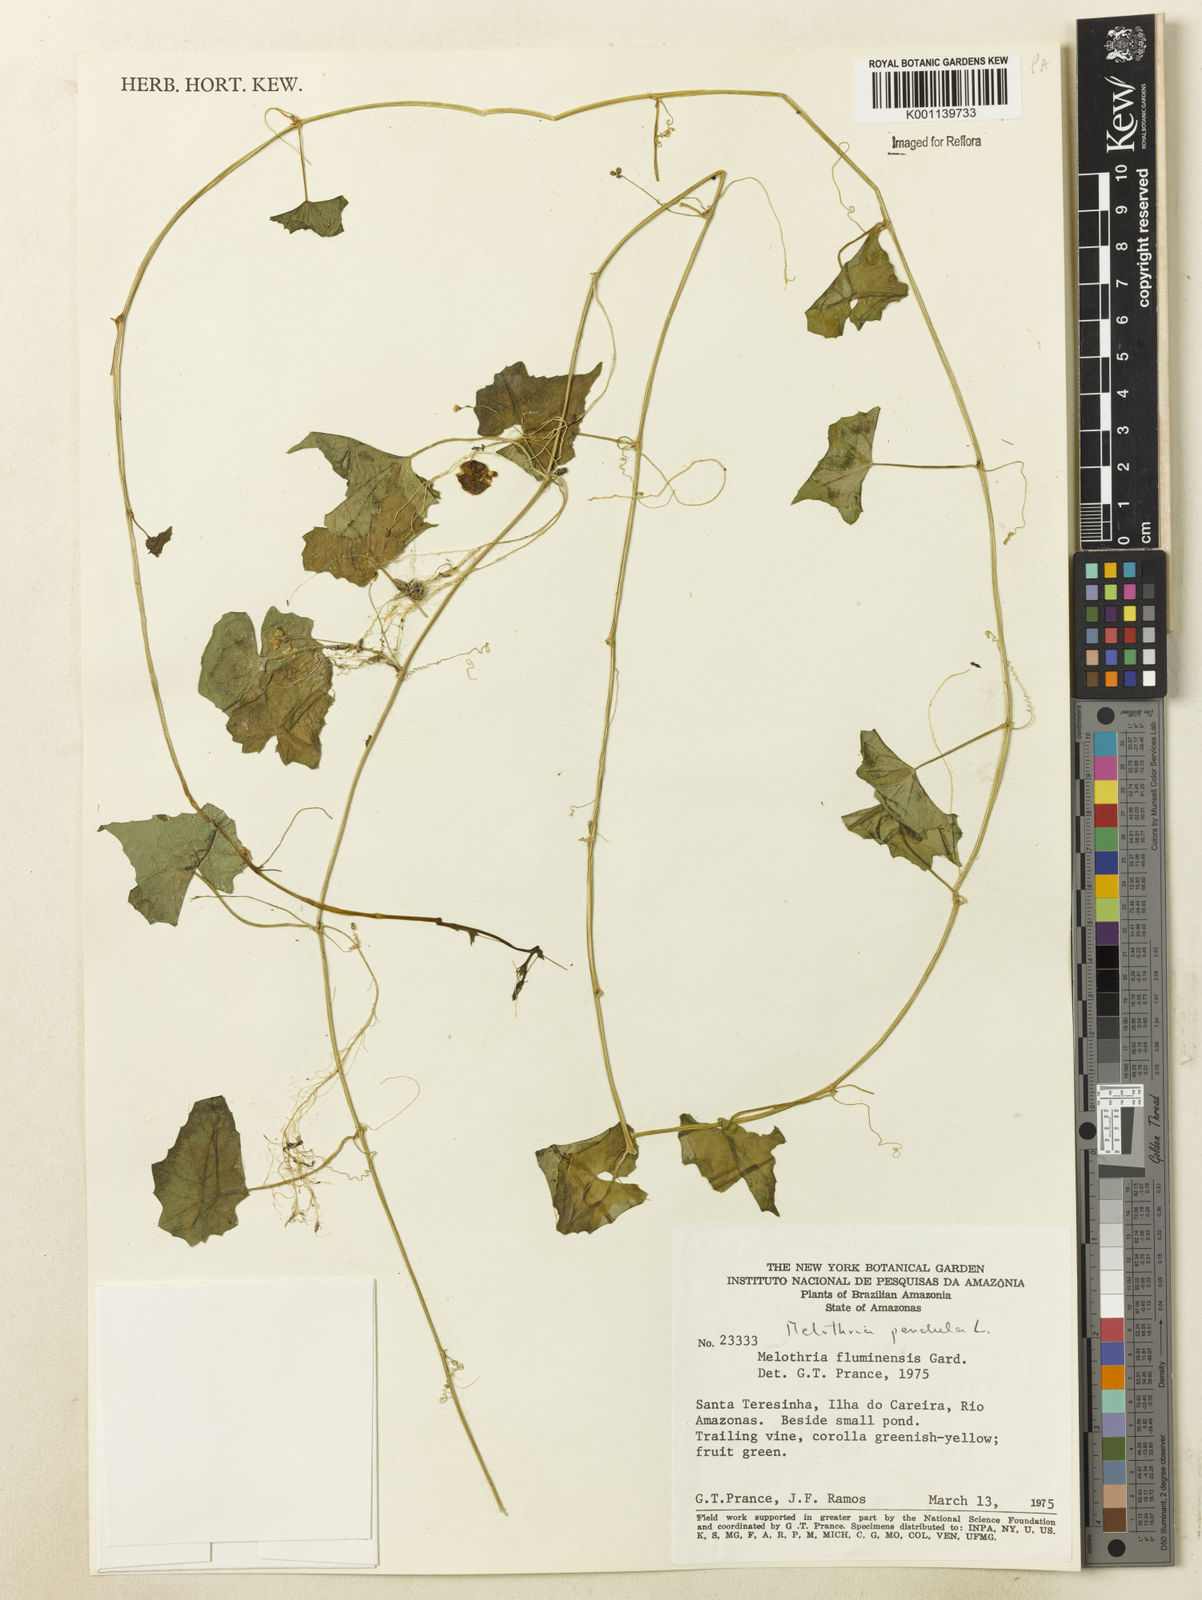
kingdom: Plantae
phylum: Tracheophyta
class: Magnoliopsida
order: Cucurbitales
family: Cucurbitaceae
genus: Melothria
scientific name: Melothria pendula
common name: Creeping-cucumber
